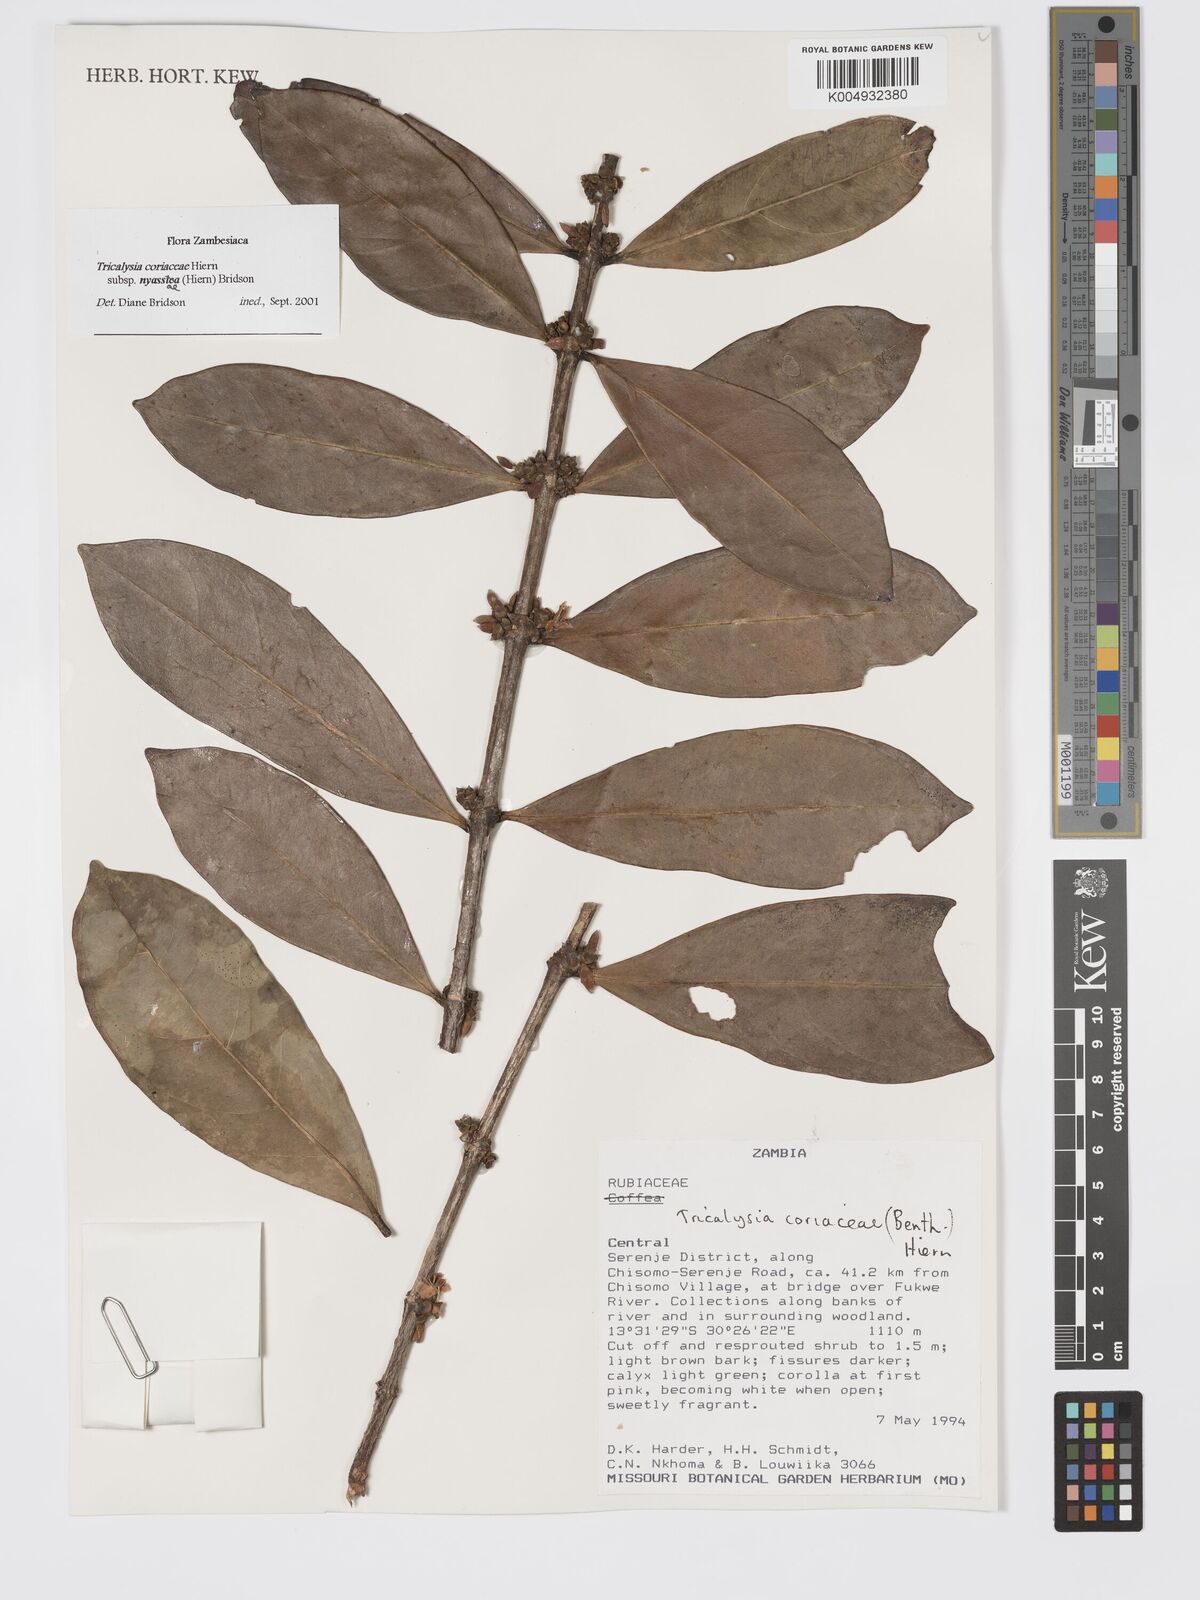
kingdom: Plantae
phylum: Tracheophyta
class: Magnoliopsida
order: Gentianales
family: Rubiaceae
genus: Tricalysia
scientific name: Tricalysia coriacea
